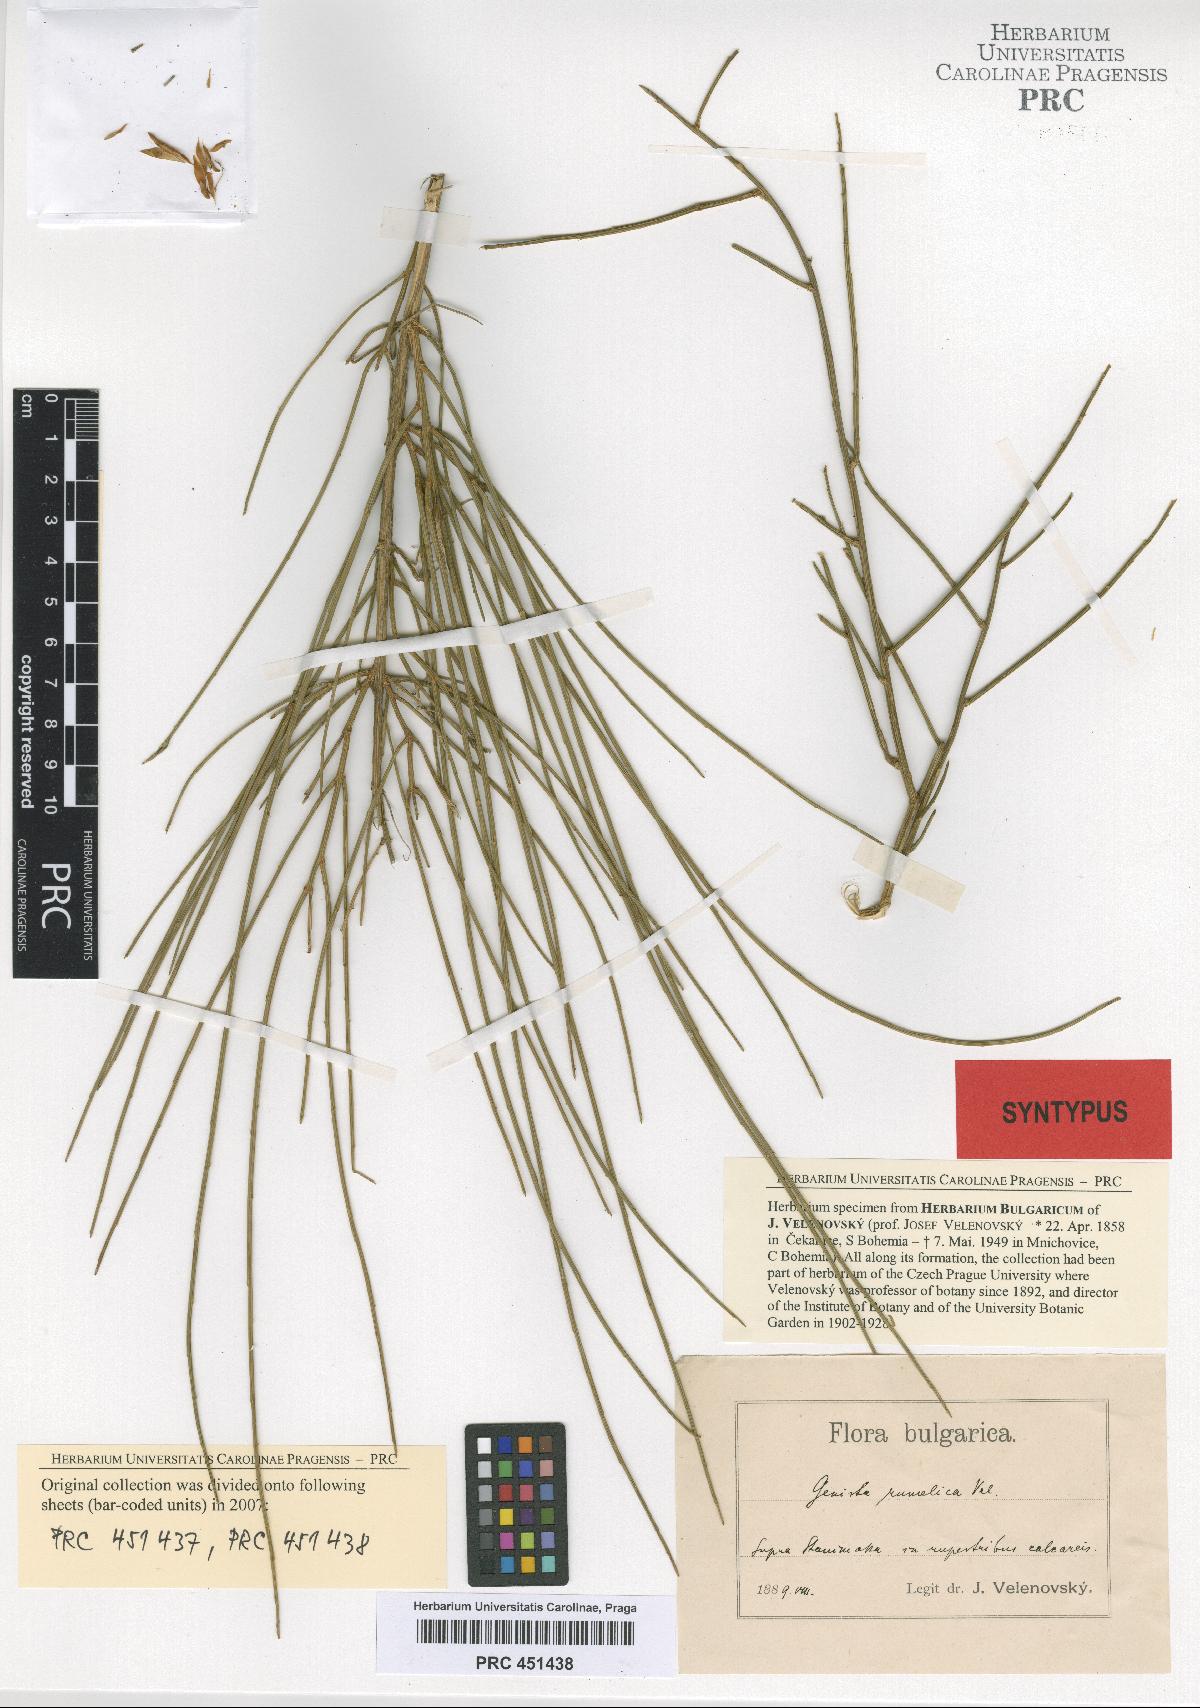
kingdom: Plantae
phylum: Tracheophyta
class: Magnoliopsida
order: Fabales
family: Fabaceae
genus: Genista
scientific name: Genista lydia
